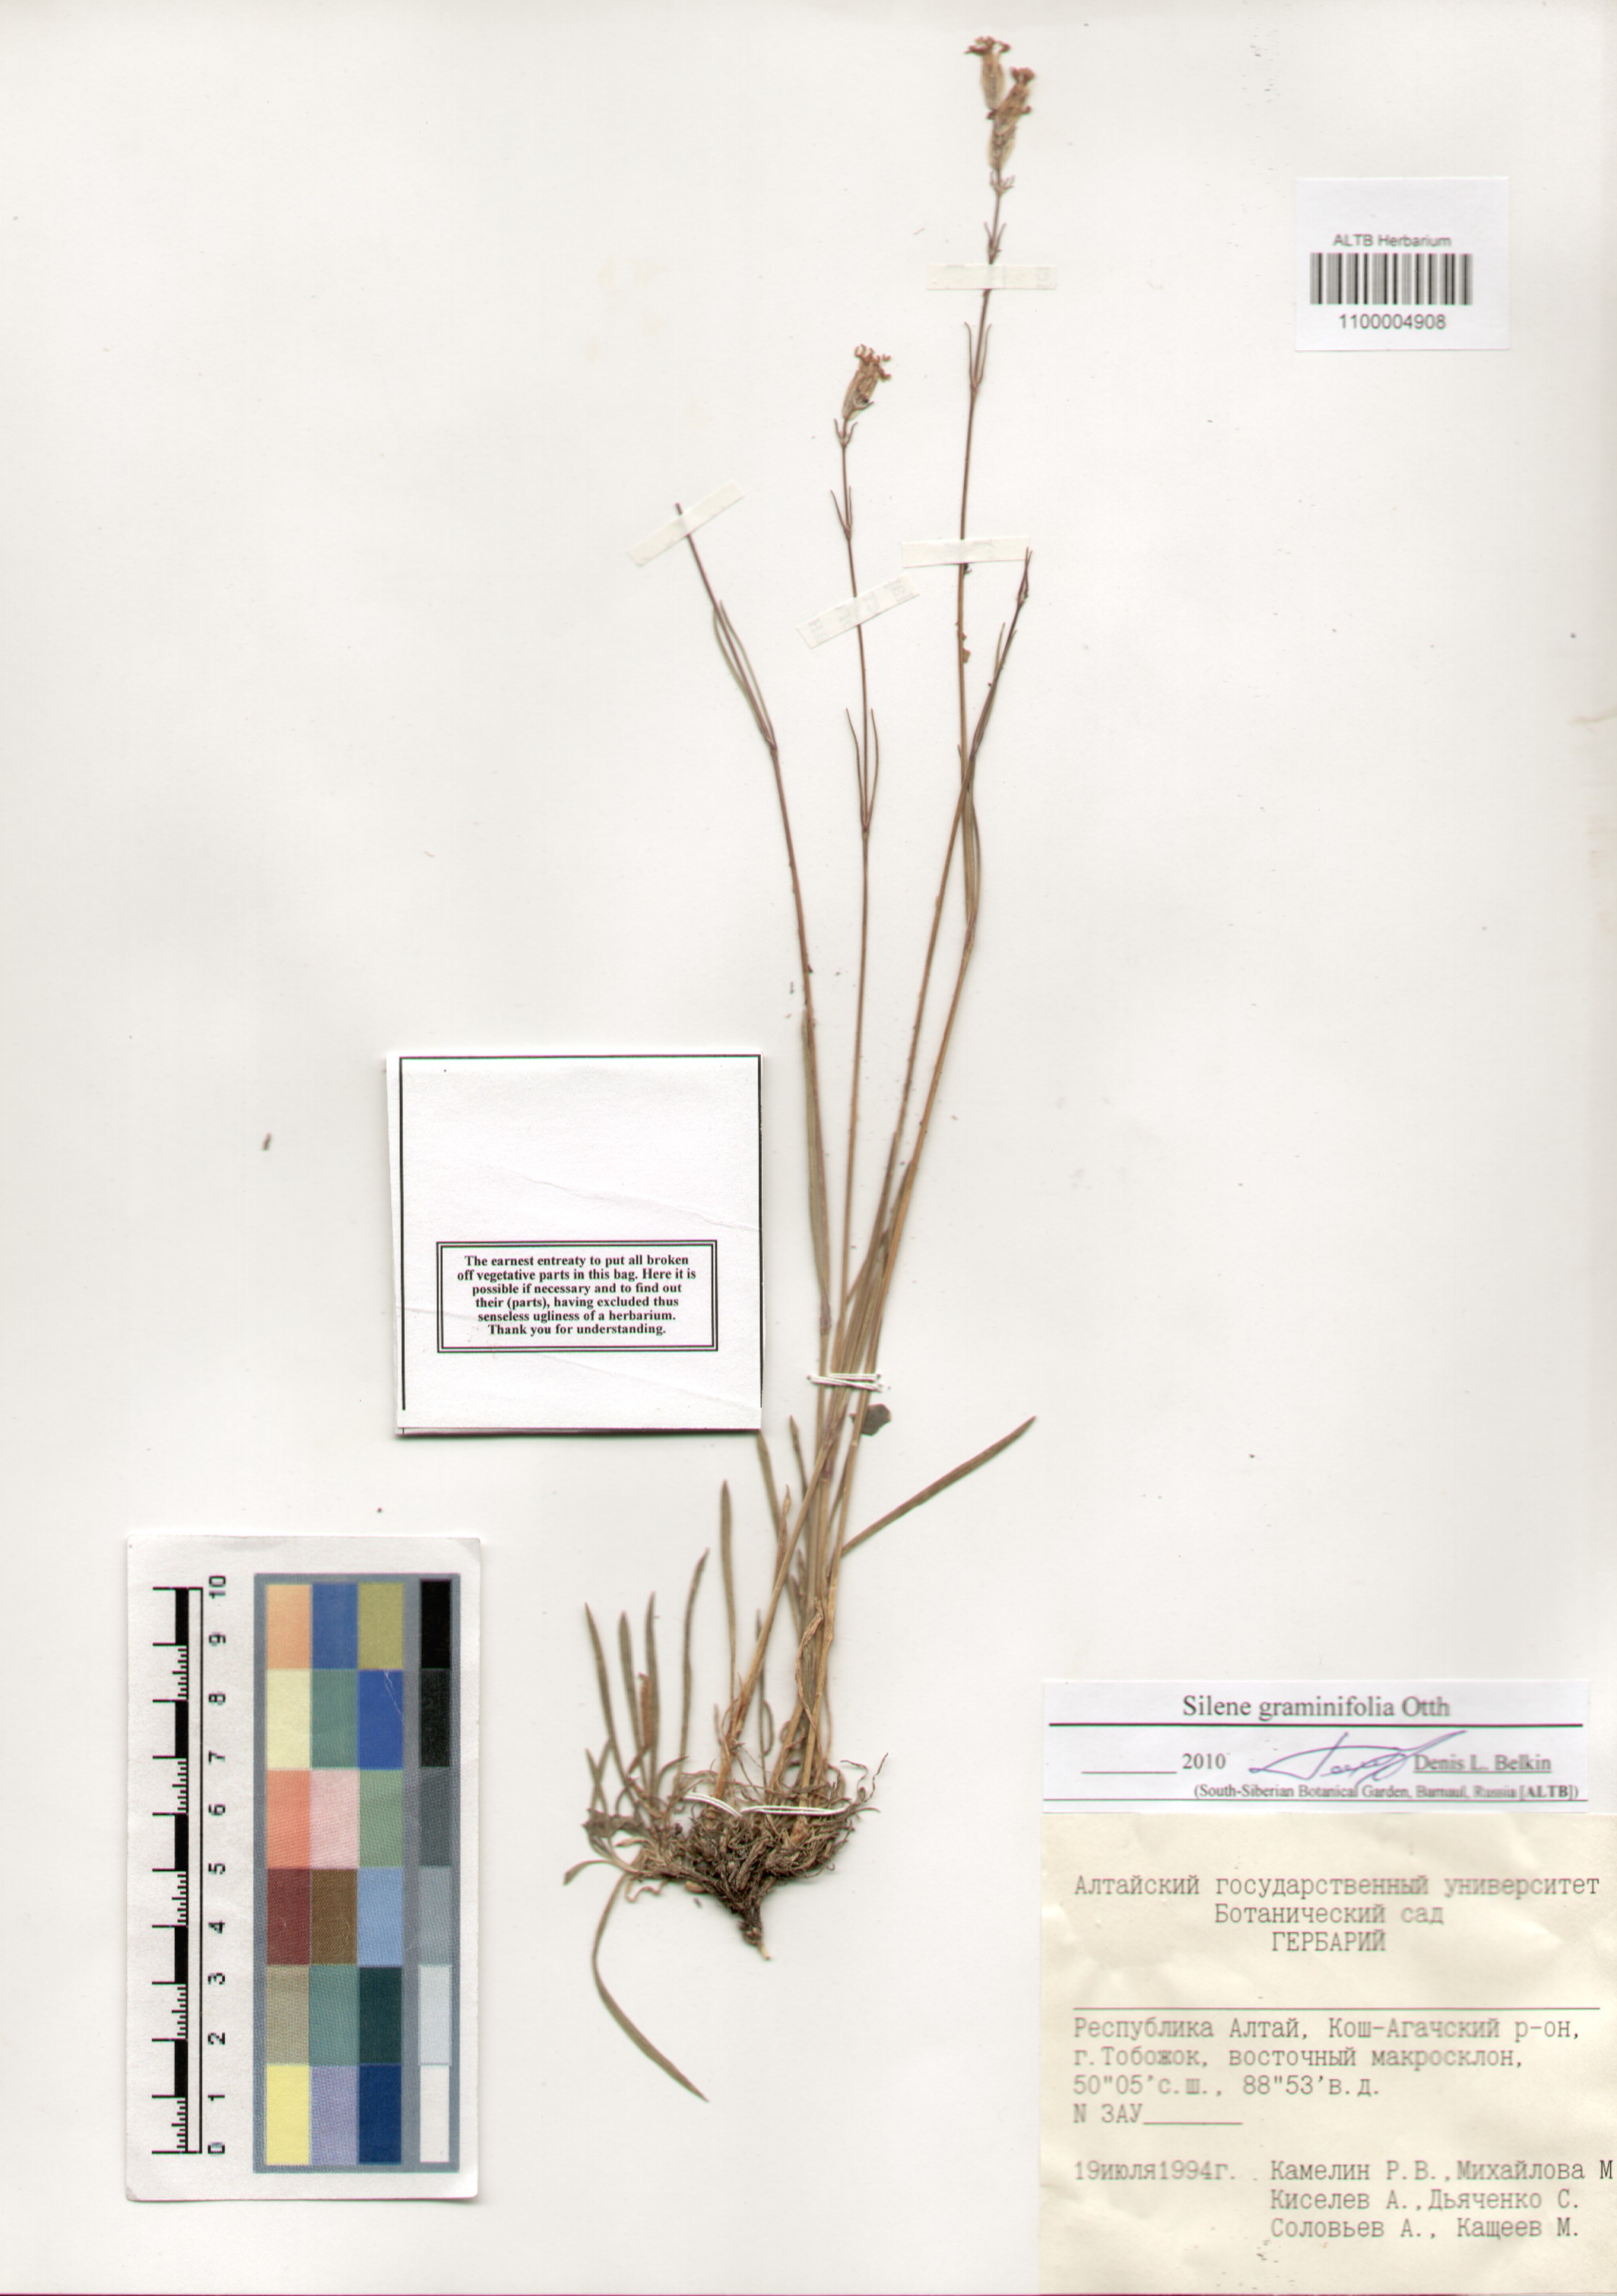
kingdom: Plantae
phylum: Tracheophyta
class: Magnoliopsida
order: Caryophyllales
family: Caryophyllaceae
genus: Silene
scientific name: Silene graminifolia
